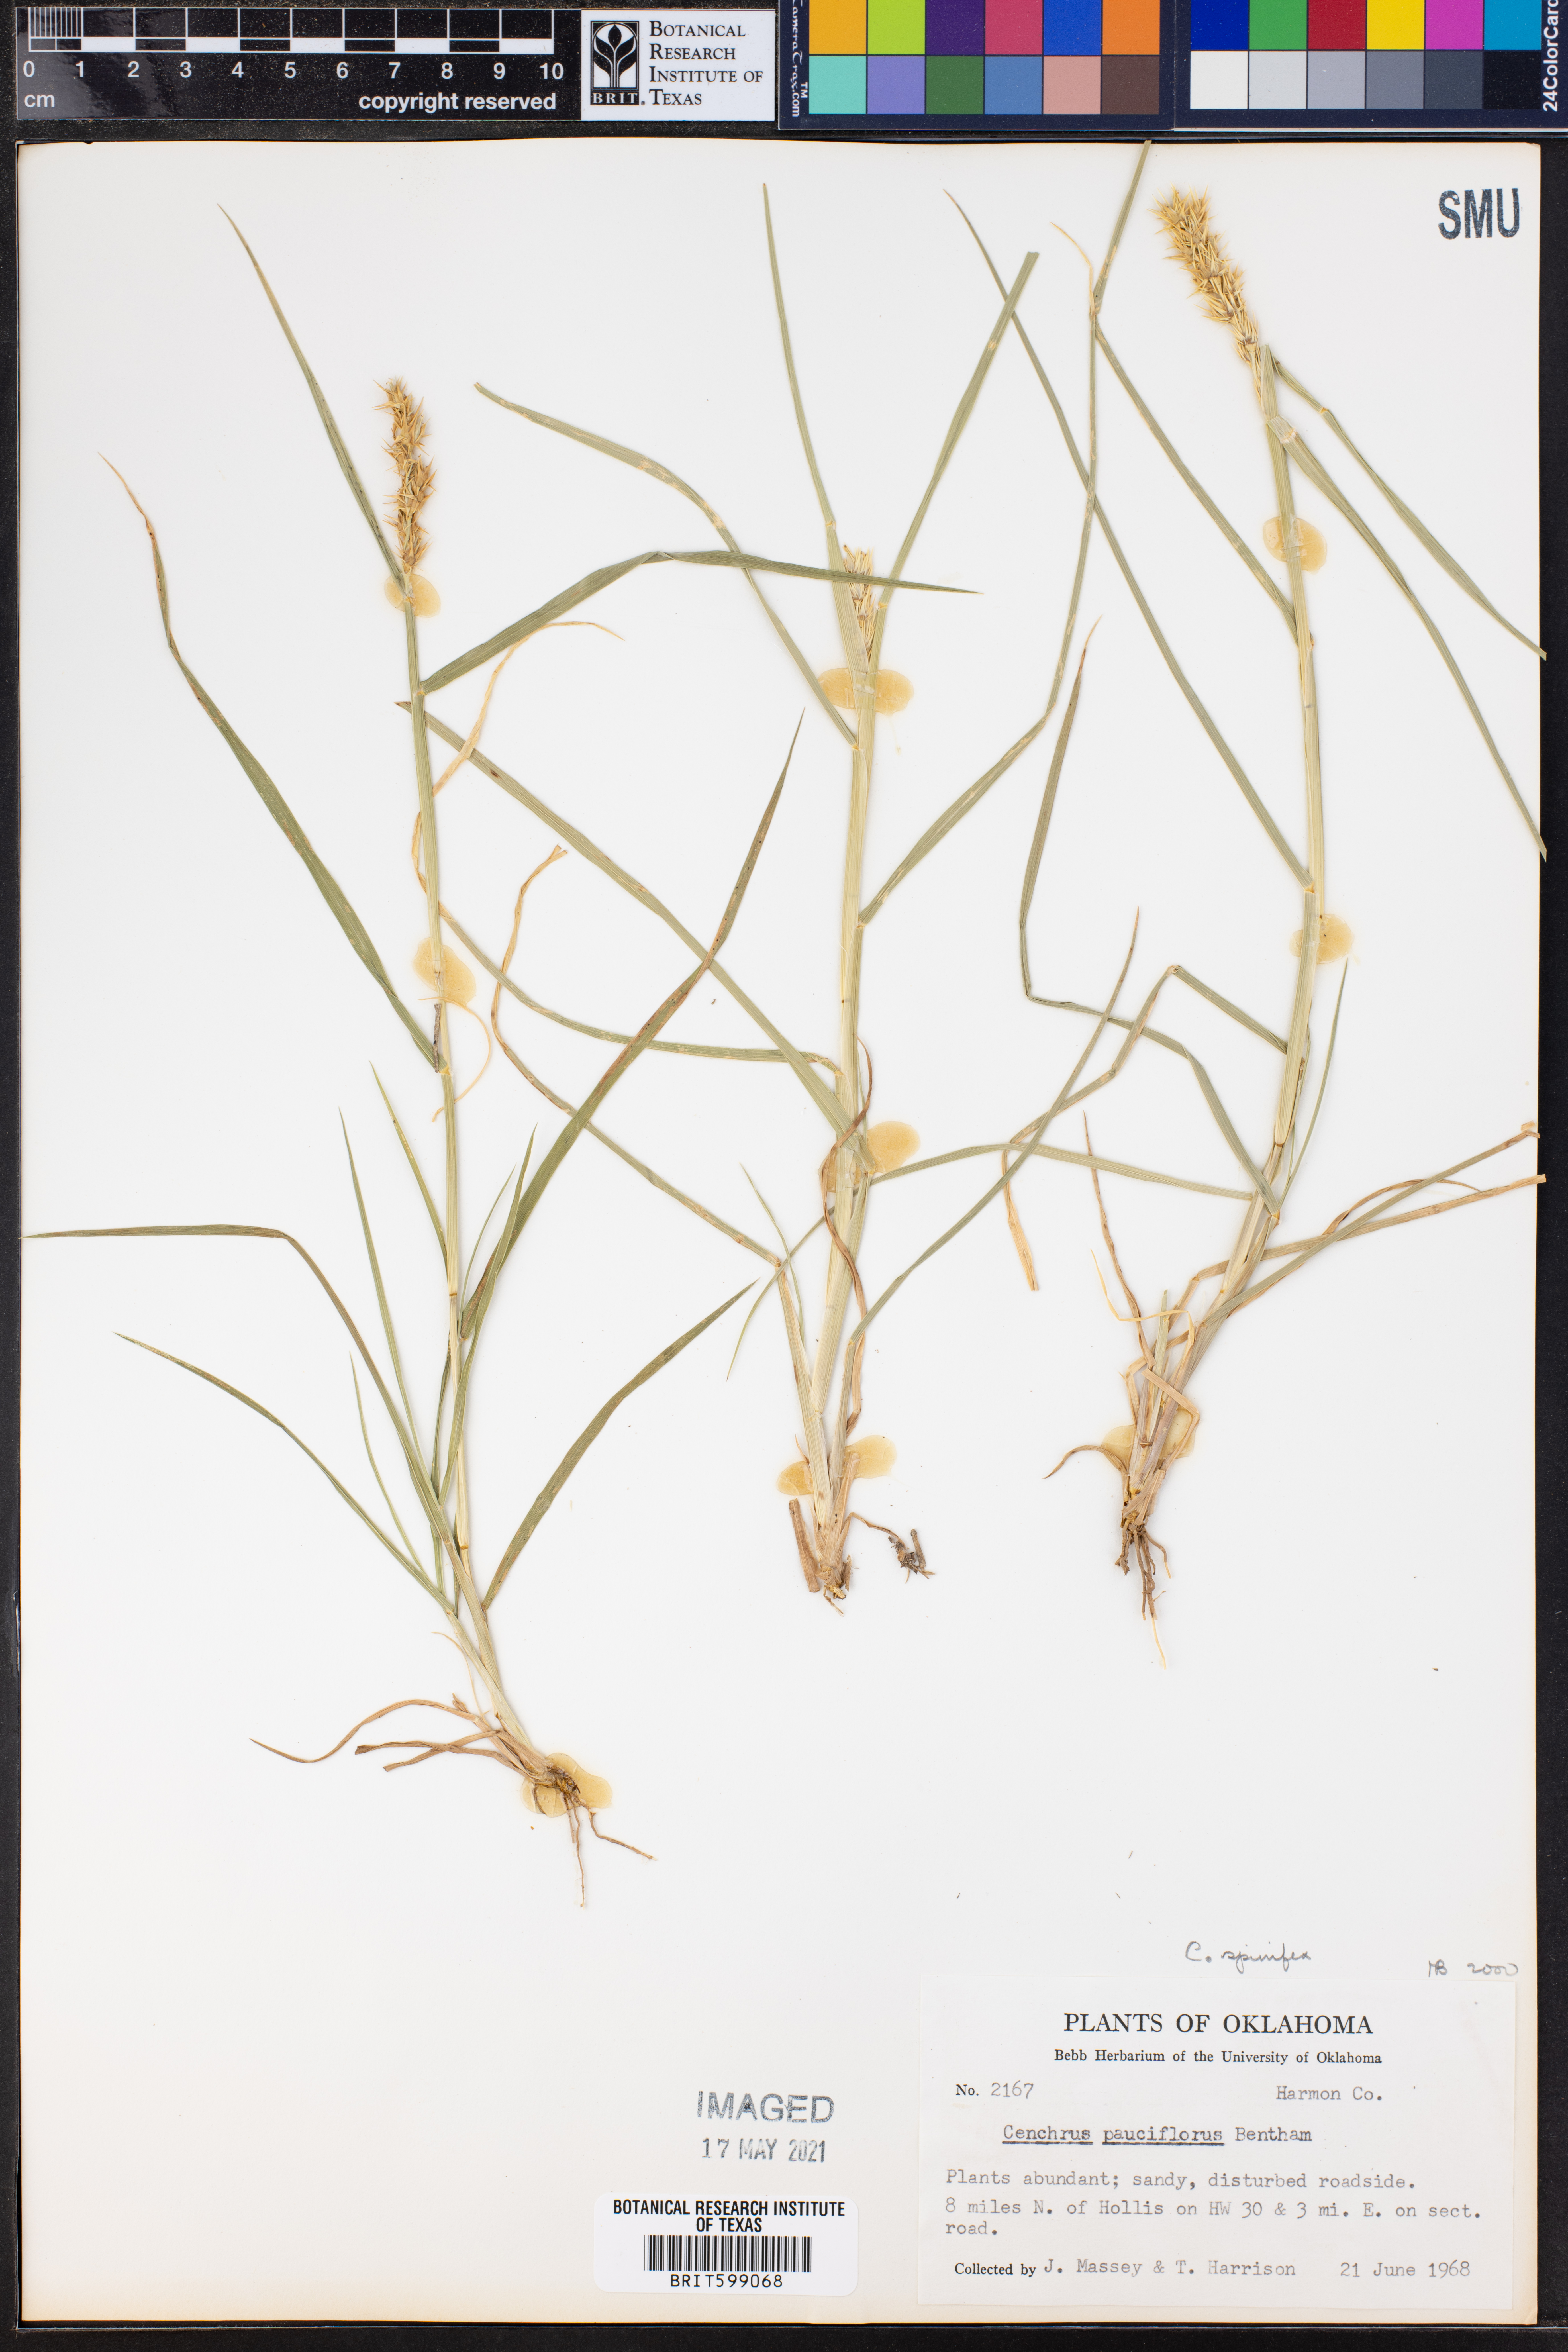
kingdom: Plantae
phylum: Tracheophyta
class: Liliopsida
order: Poales
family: Poaceae
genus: Cenchrus
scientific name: Cenchrus spinifex
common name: Coast sandbur
